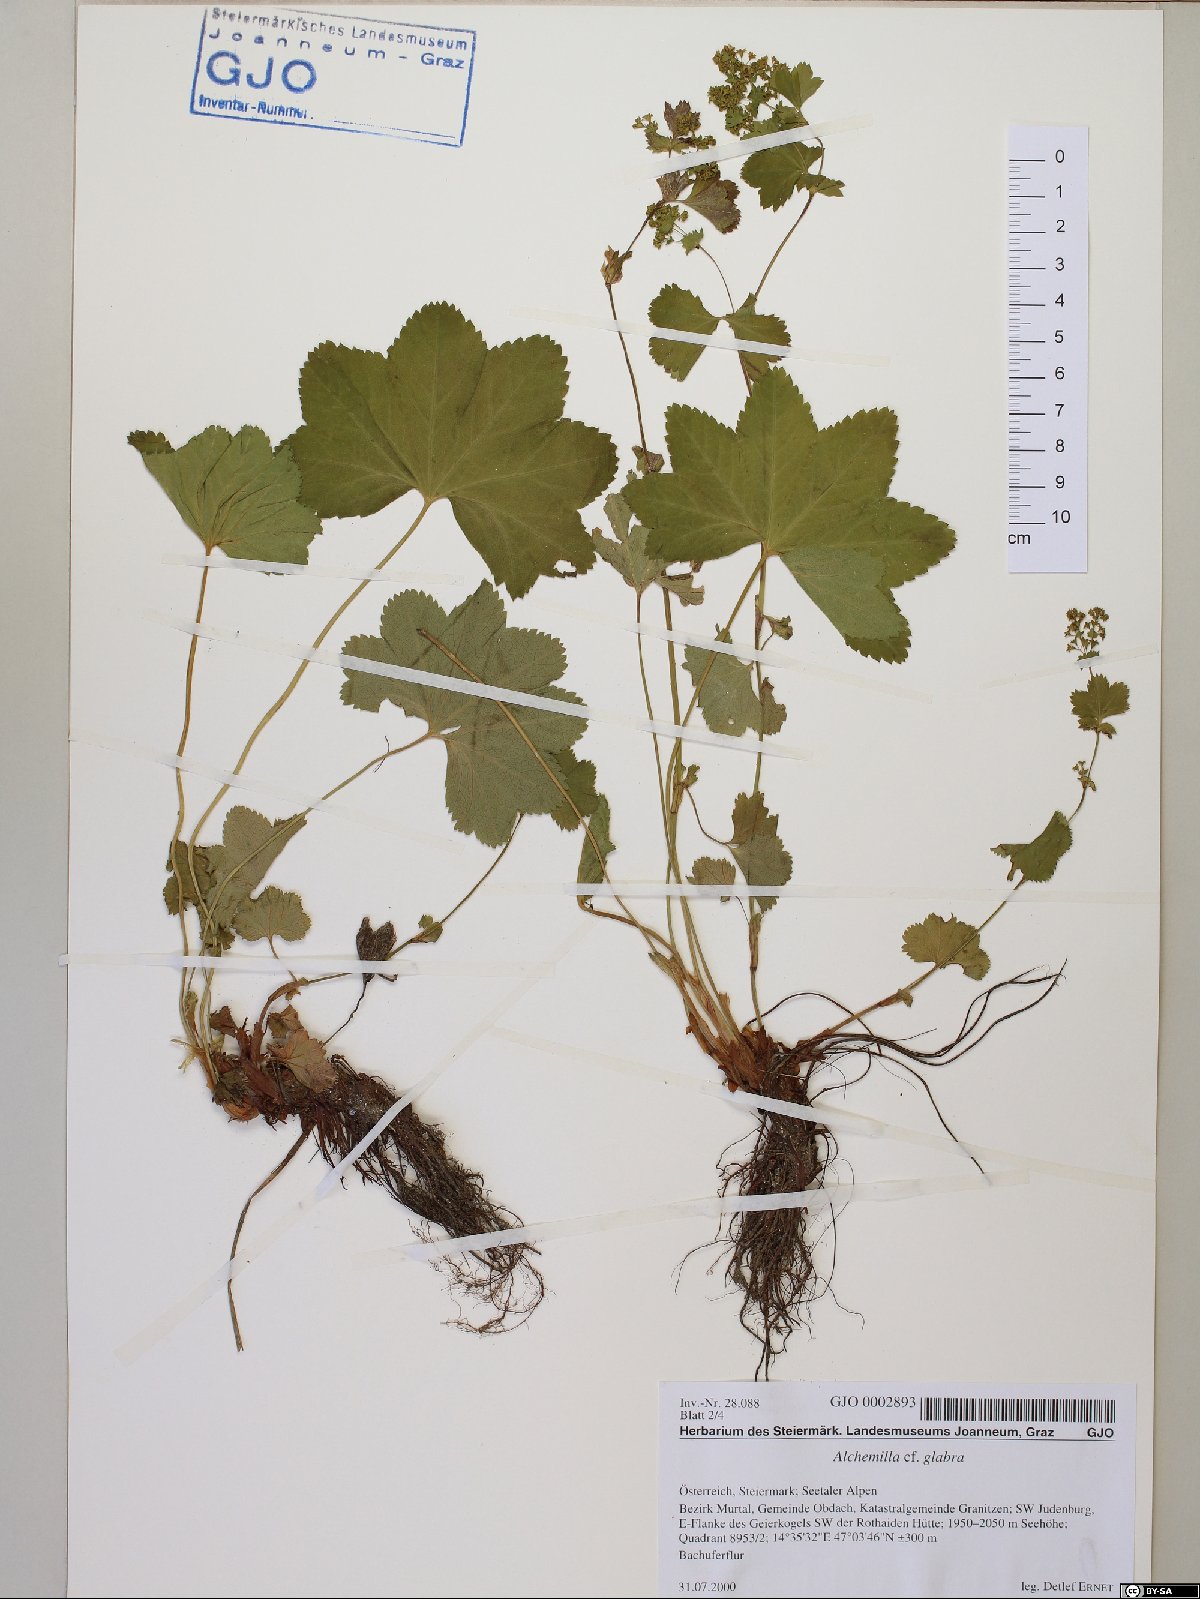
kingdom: Plantae
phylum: Tracheophyta
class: Magnoliopsida
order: Rosales
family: Rosaceae
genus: Alchemilla
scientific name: Alchemilla glabra
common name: Smooth lady's-mantle
